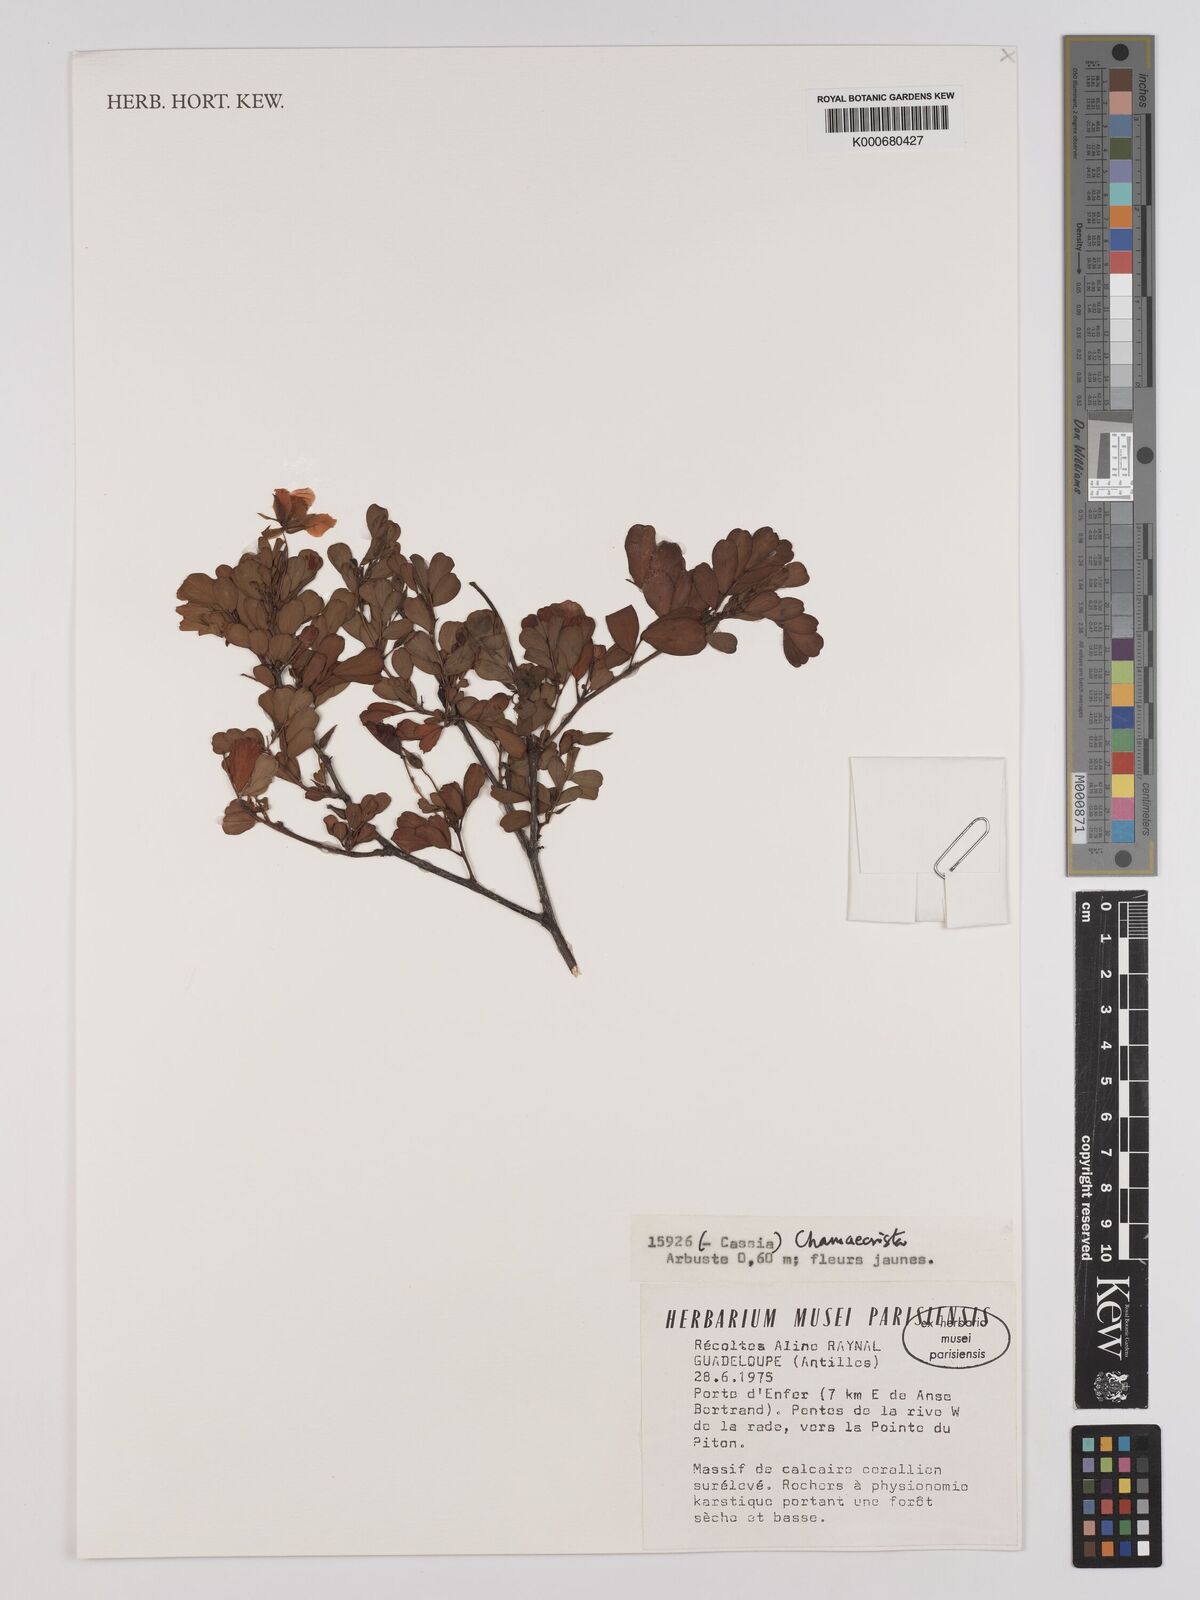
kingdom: Plantae
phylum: Tracheophyta
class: Magnoliopsida
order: Fabales
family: Fabaceae
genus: Chamaecrista
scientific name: Chamaecrista
